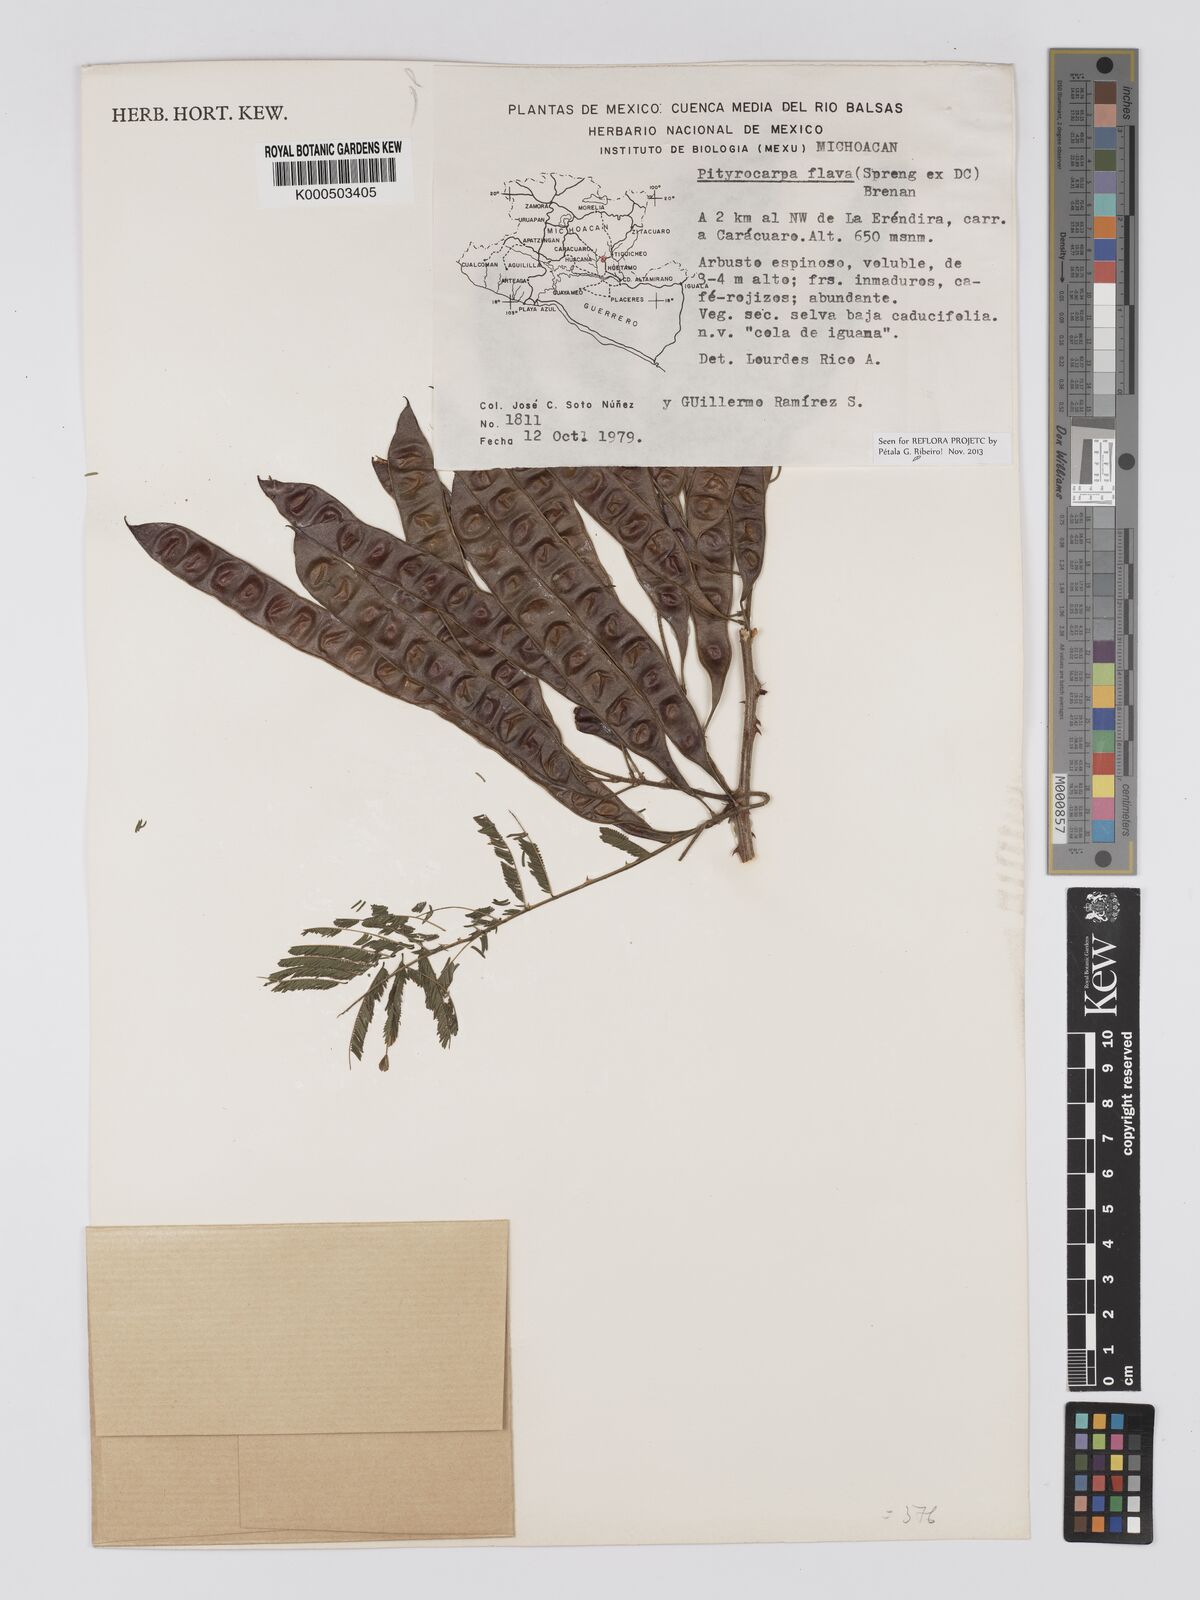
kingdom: Plantae
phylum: Tracheophyta
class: Magnoliopsida
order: Fabales
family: Fabaceae
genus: Piptadenia
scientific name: Piptadenia retusa
